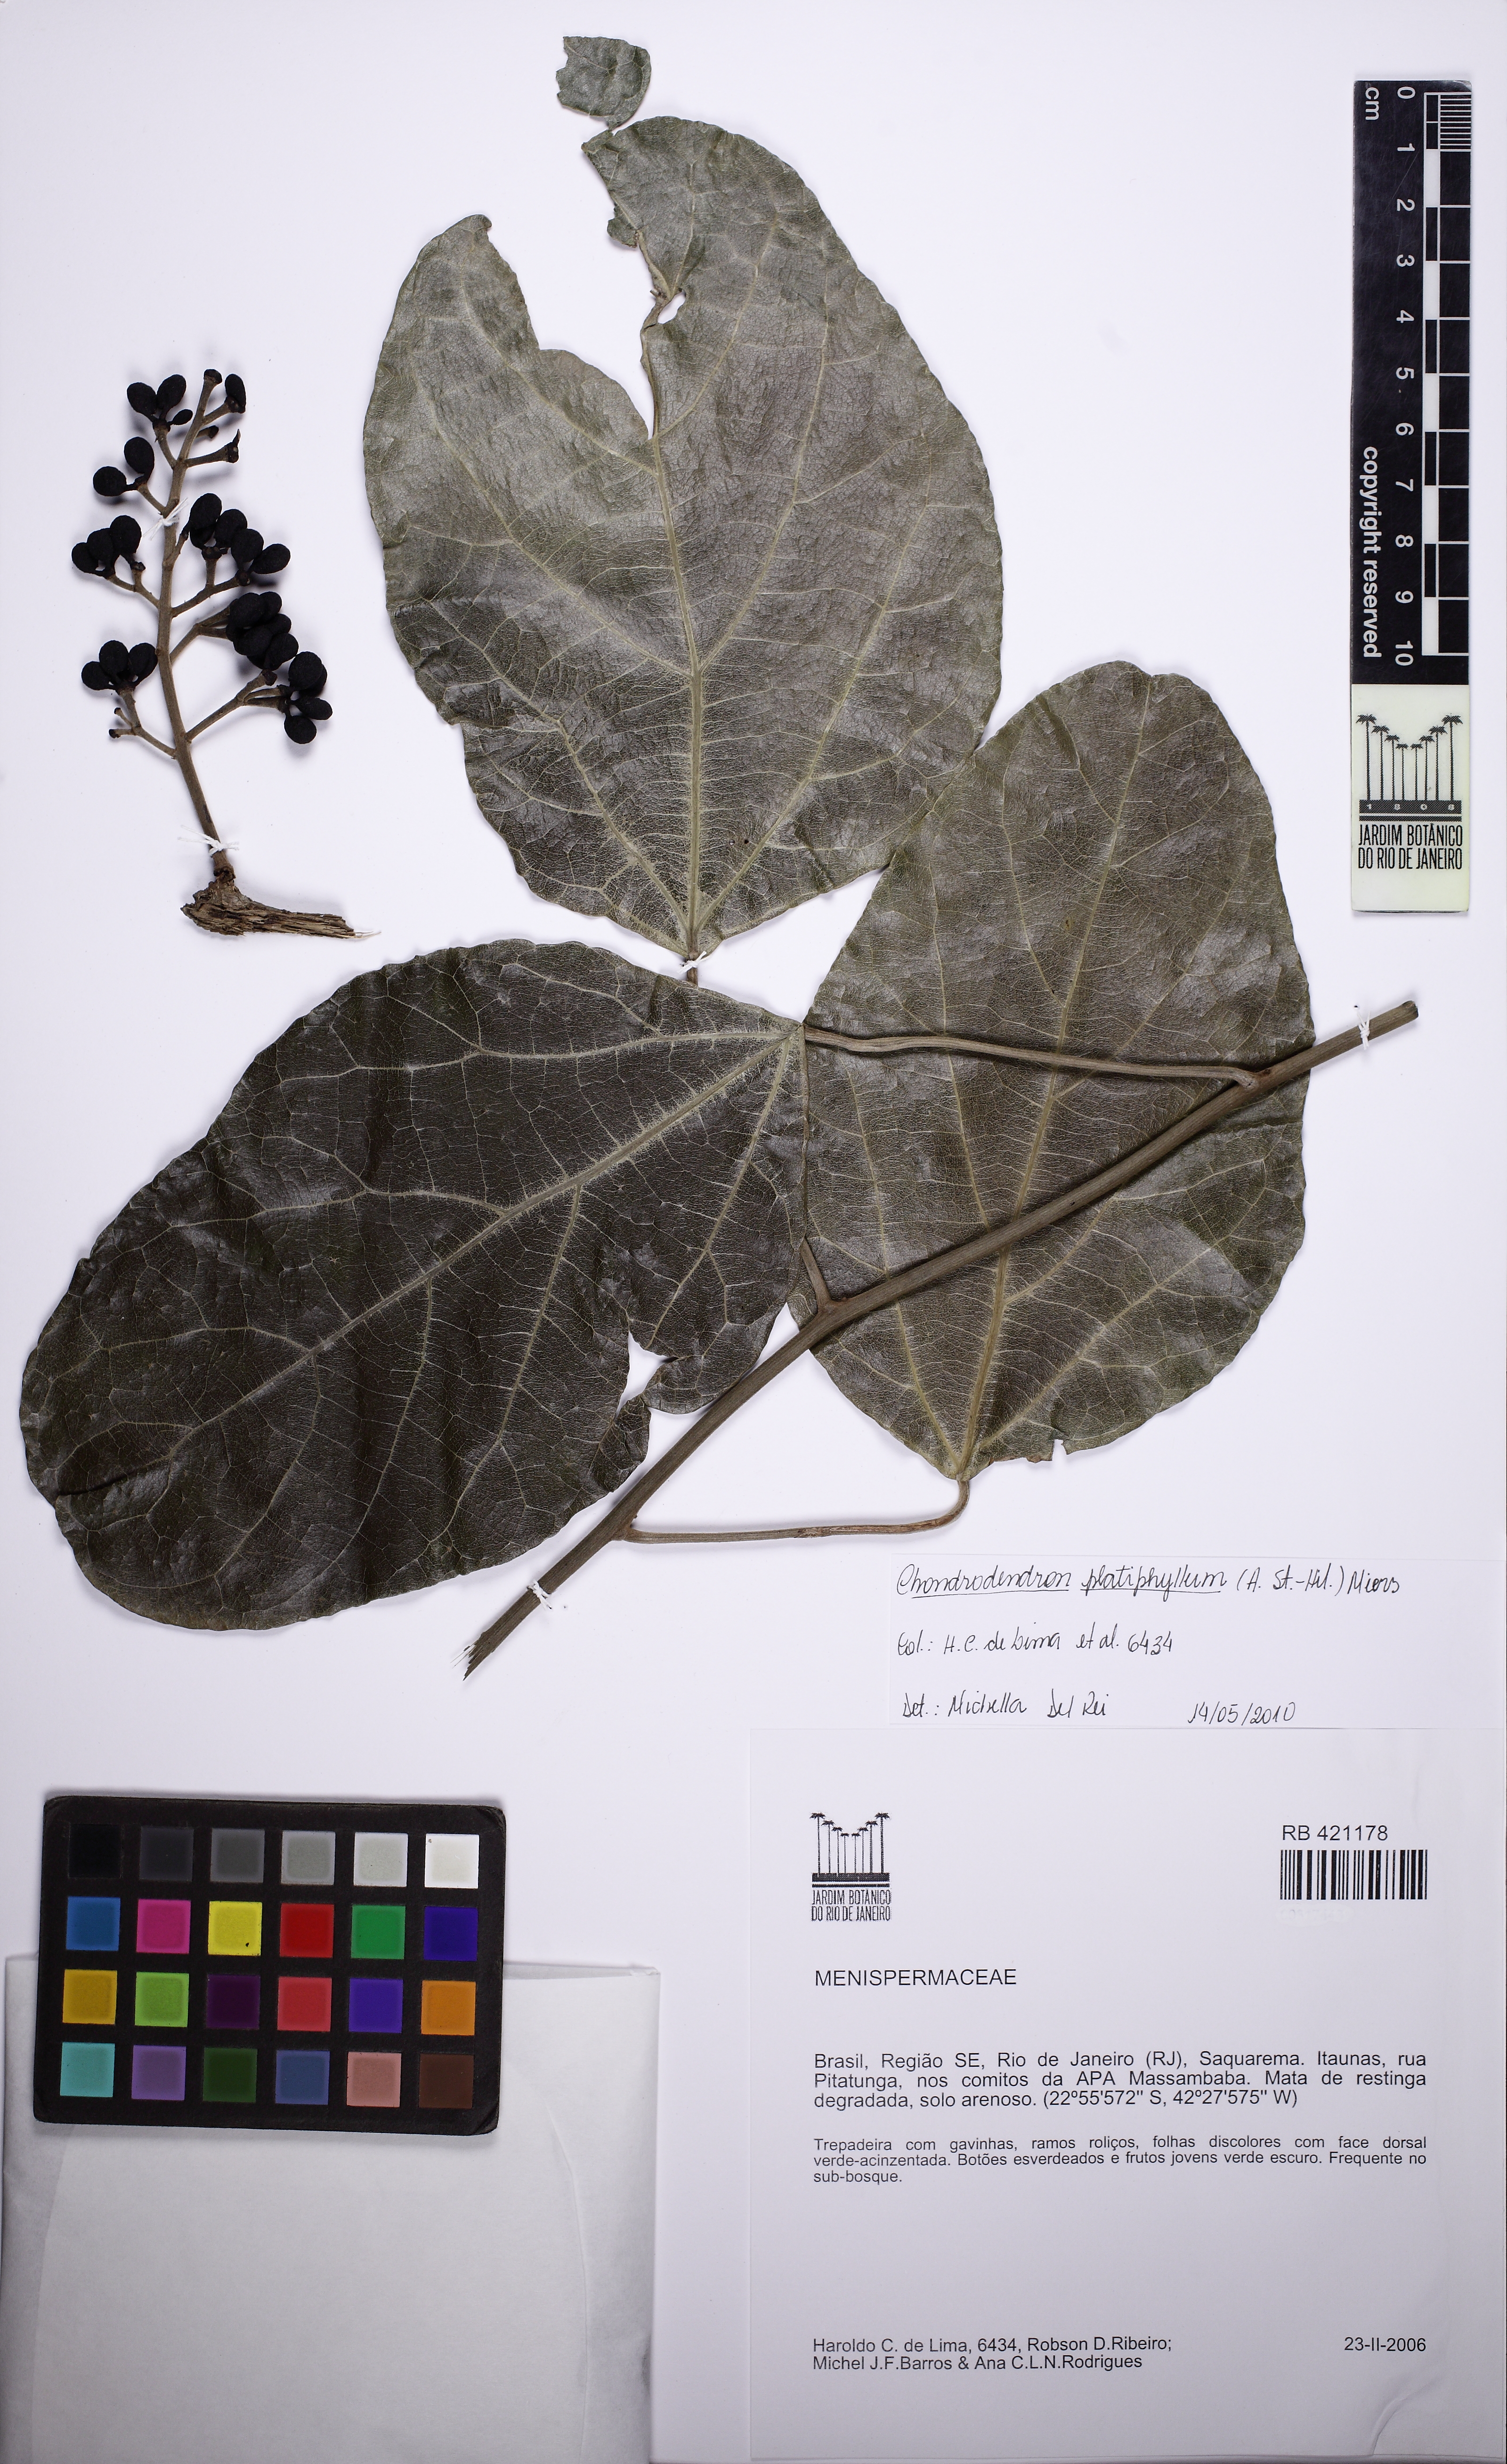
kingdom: Plantae
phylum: Tracheophyta
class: Magnoliopsida
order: Ranunculales
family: Menispermaceae
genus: Chondrodendron
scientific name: Chondrodendron platyphyllum
